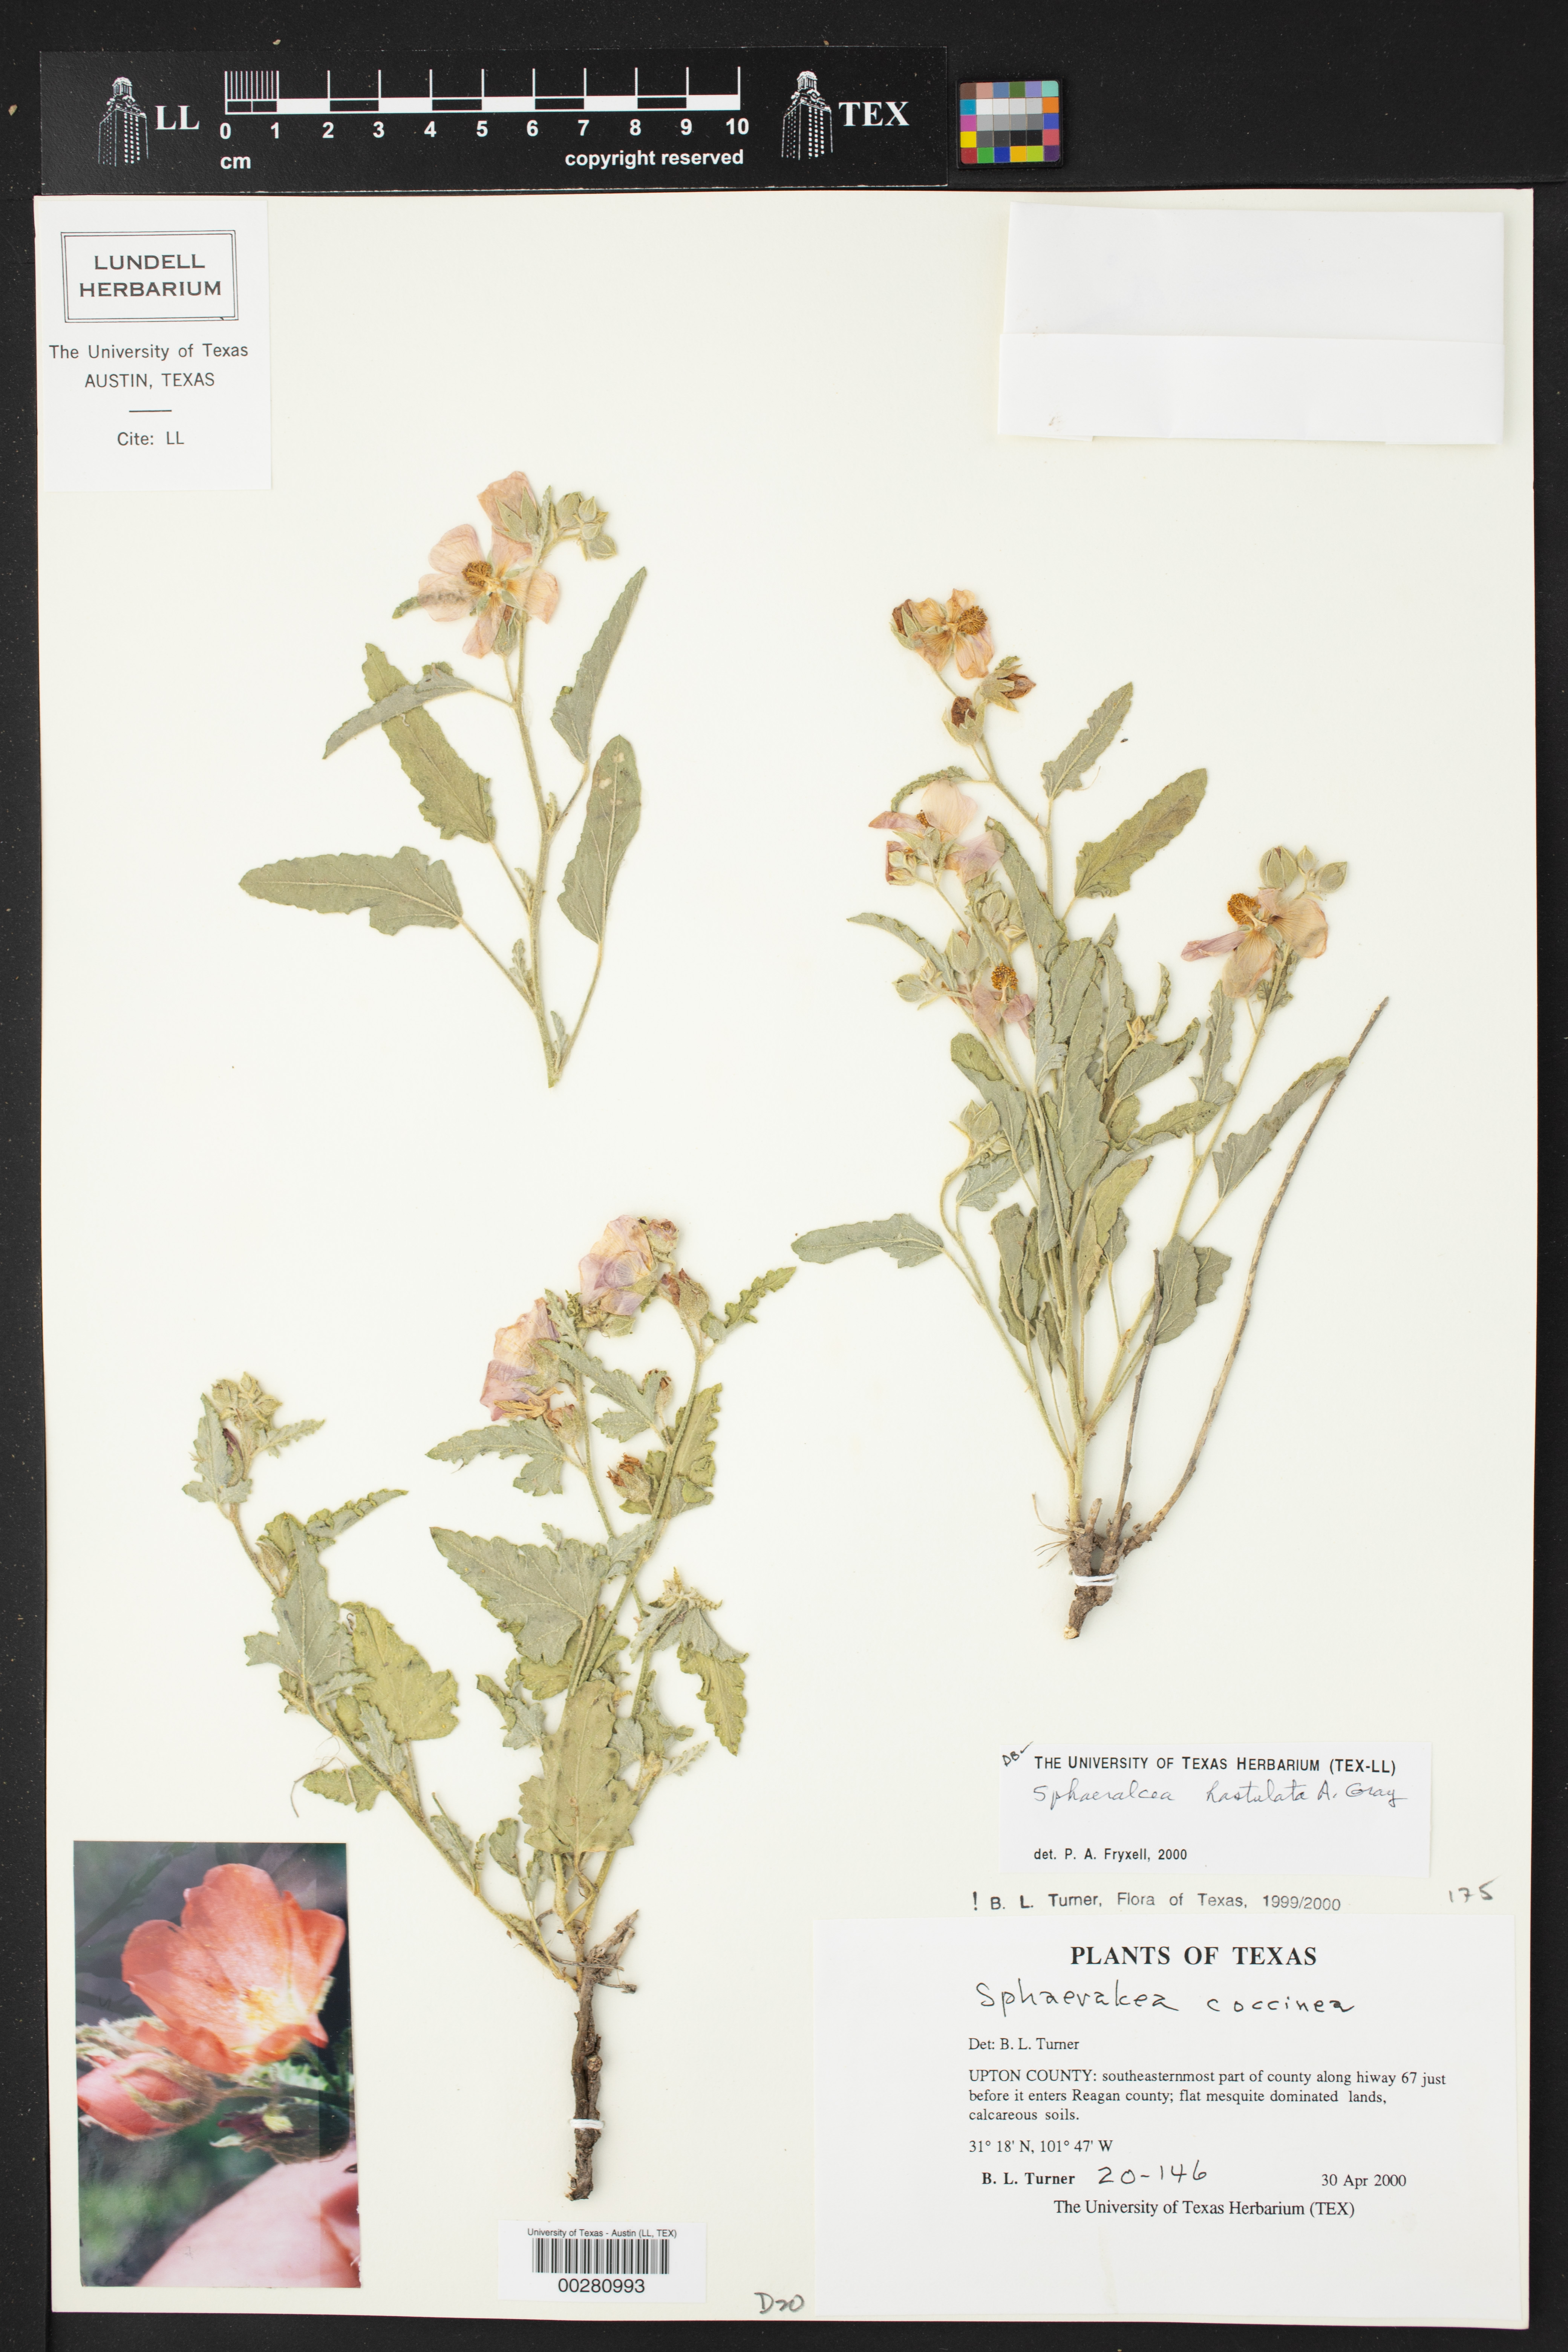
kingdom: Plantae
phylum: Tracheophyta
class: Magnoliopsida
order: Malvales
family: Malvaceae
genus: Sphaeralcea
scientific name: Sphaeralcea hastulata
